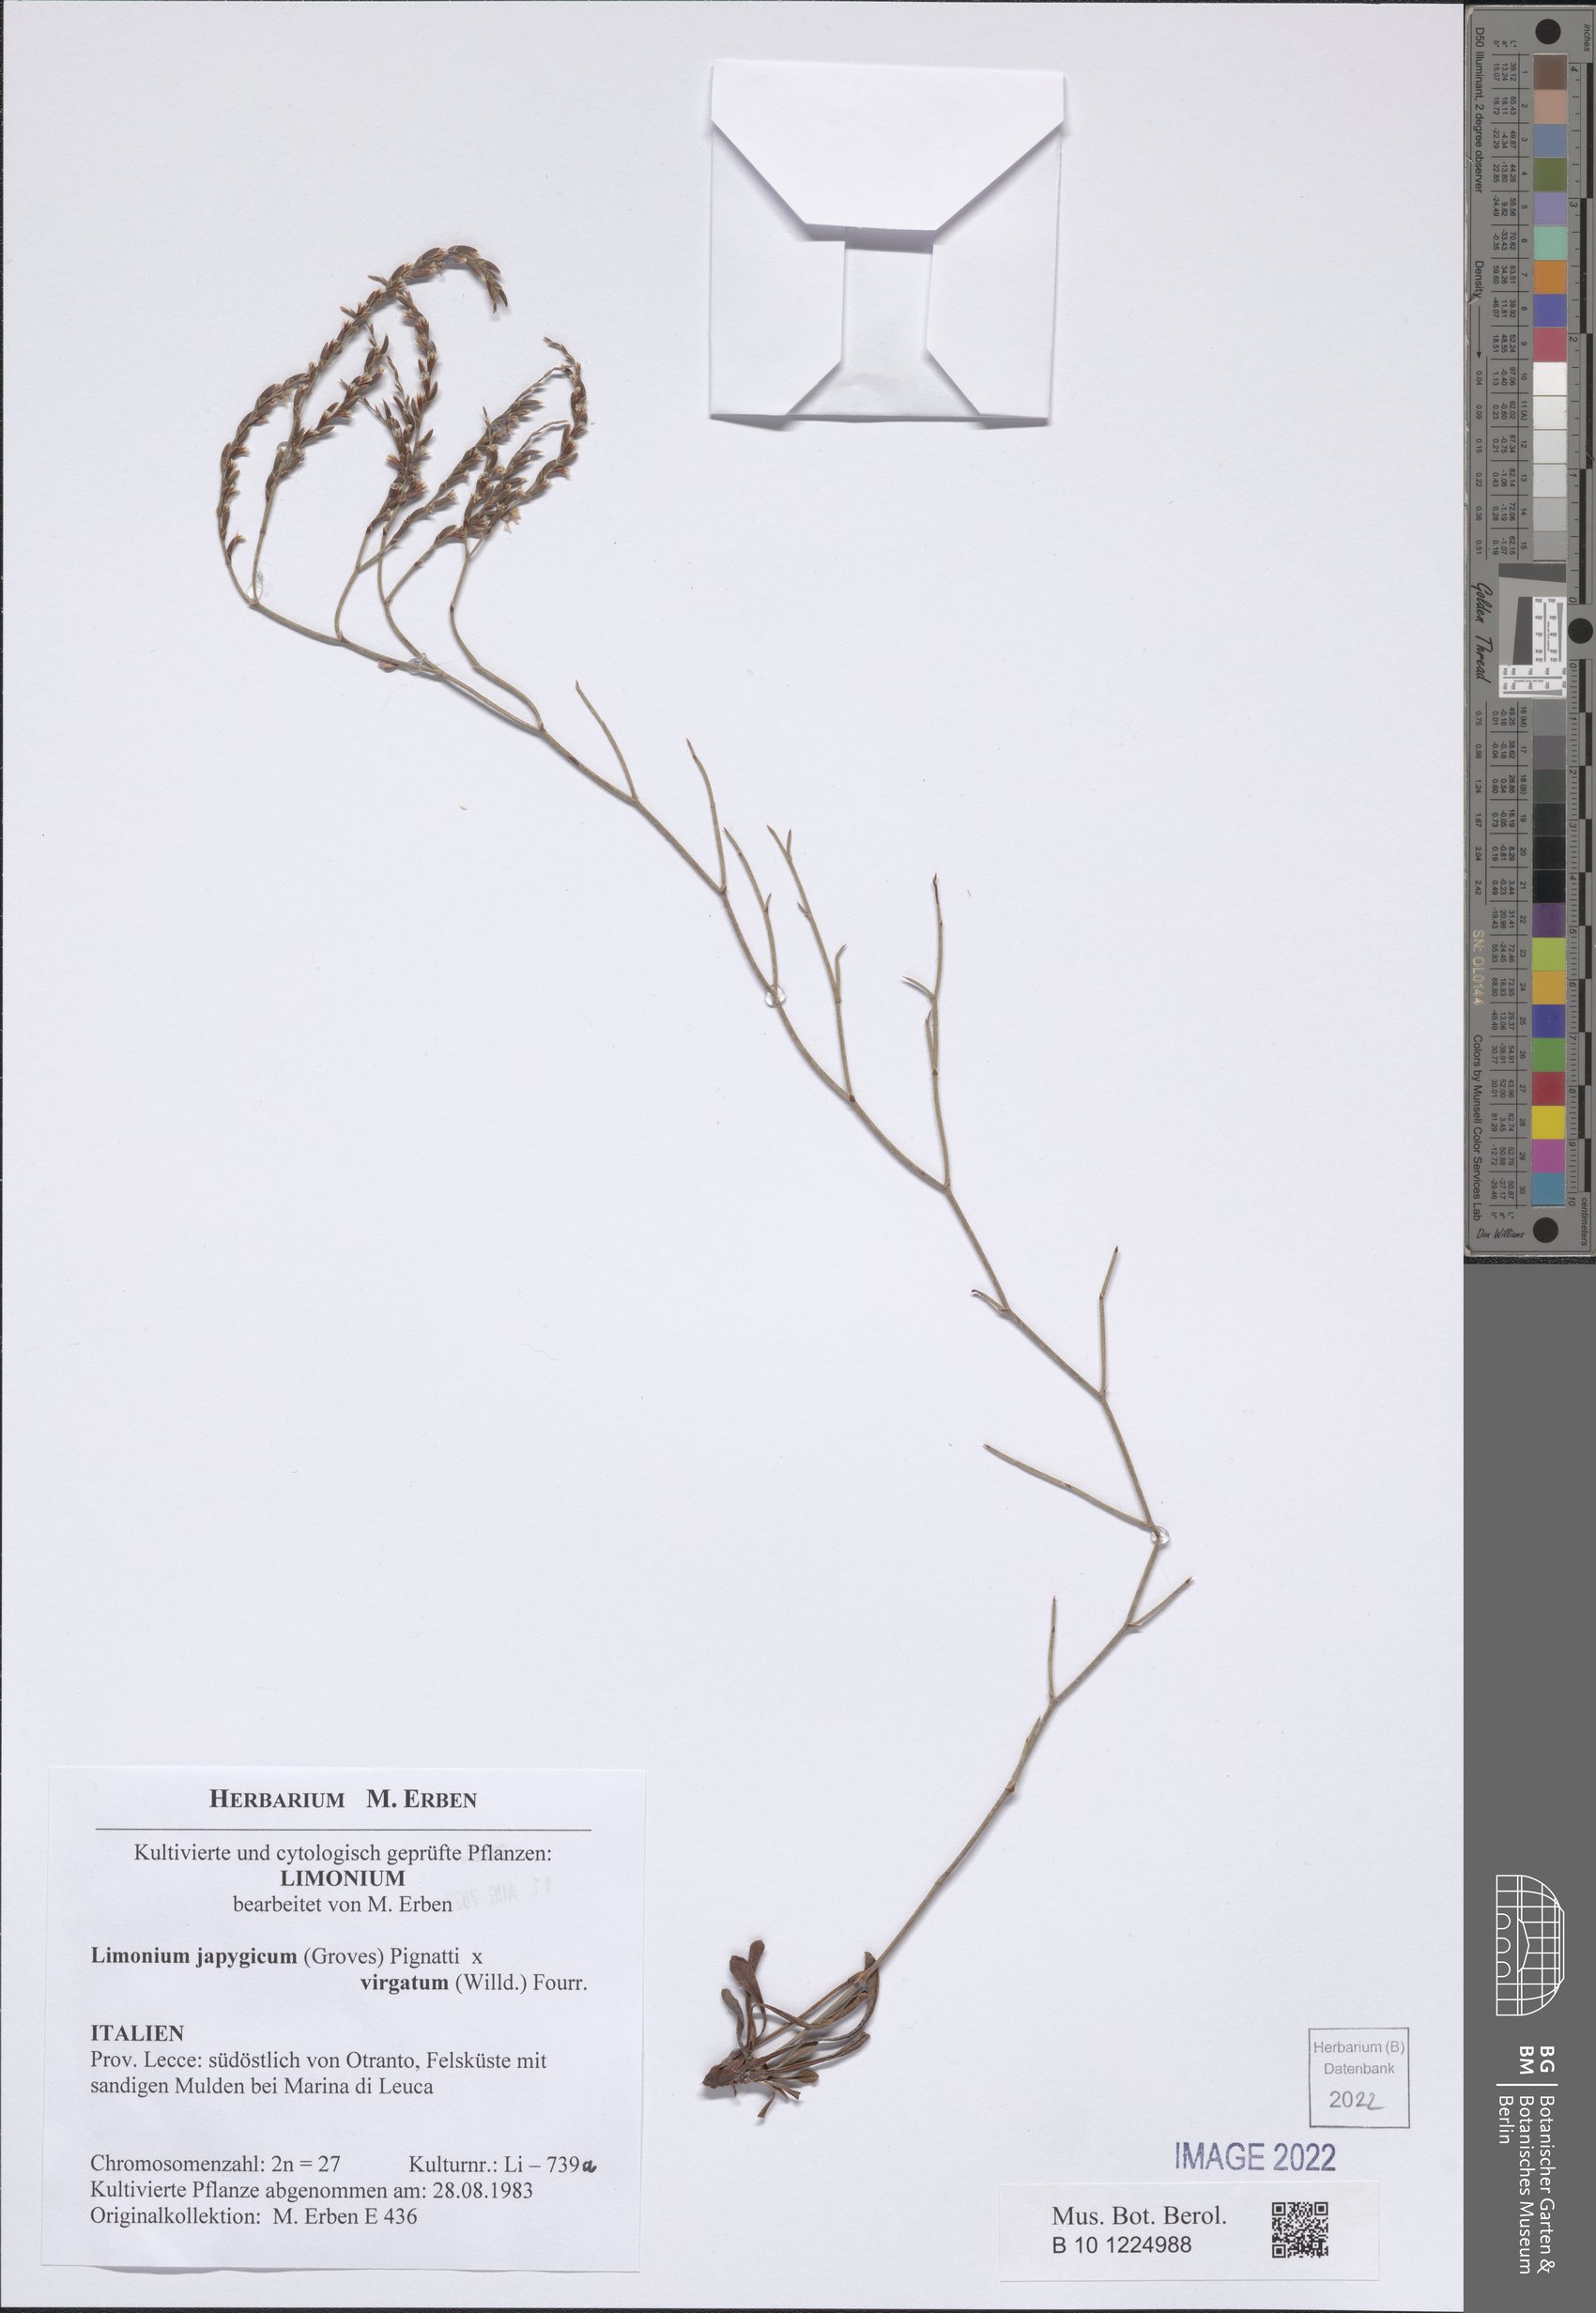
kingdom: Plantae
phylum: Tracheophyta
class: Magnoliopsida
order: Caryophyllales
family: Plumbaginaceae
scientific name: Plumbaginaceae
